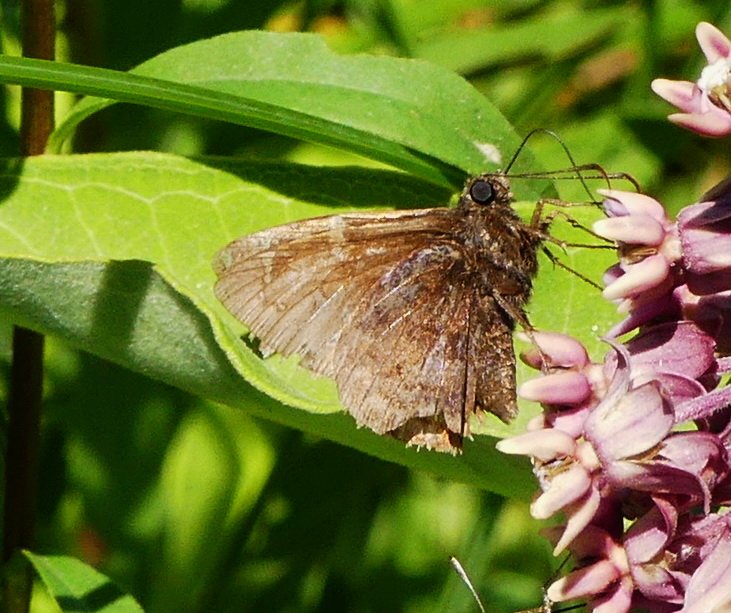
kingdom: Animalia
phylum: Arthropoda
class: Insecta
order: Lepidoptera
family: Hesperiidae
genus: Autochton
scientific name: Autochton
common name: Northern Cloudywing
